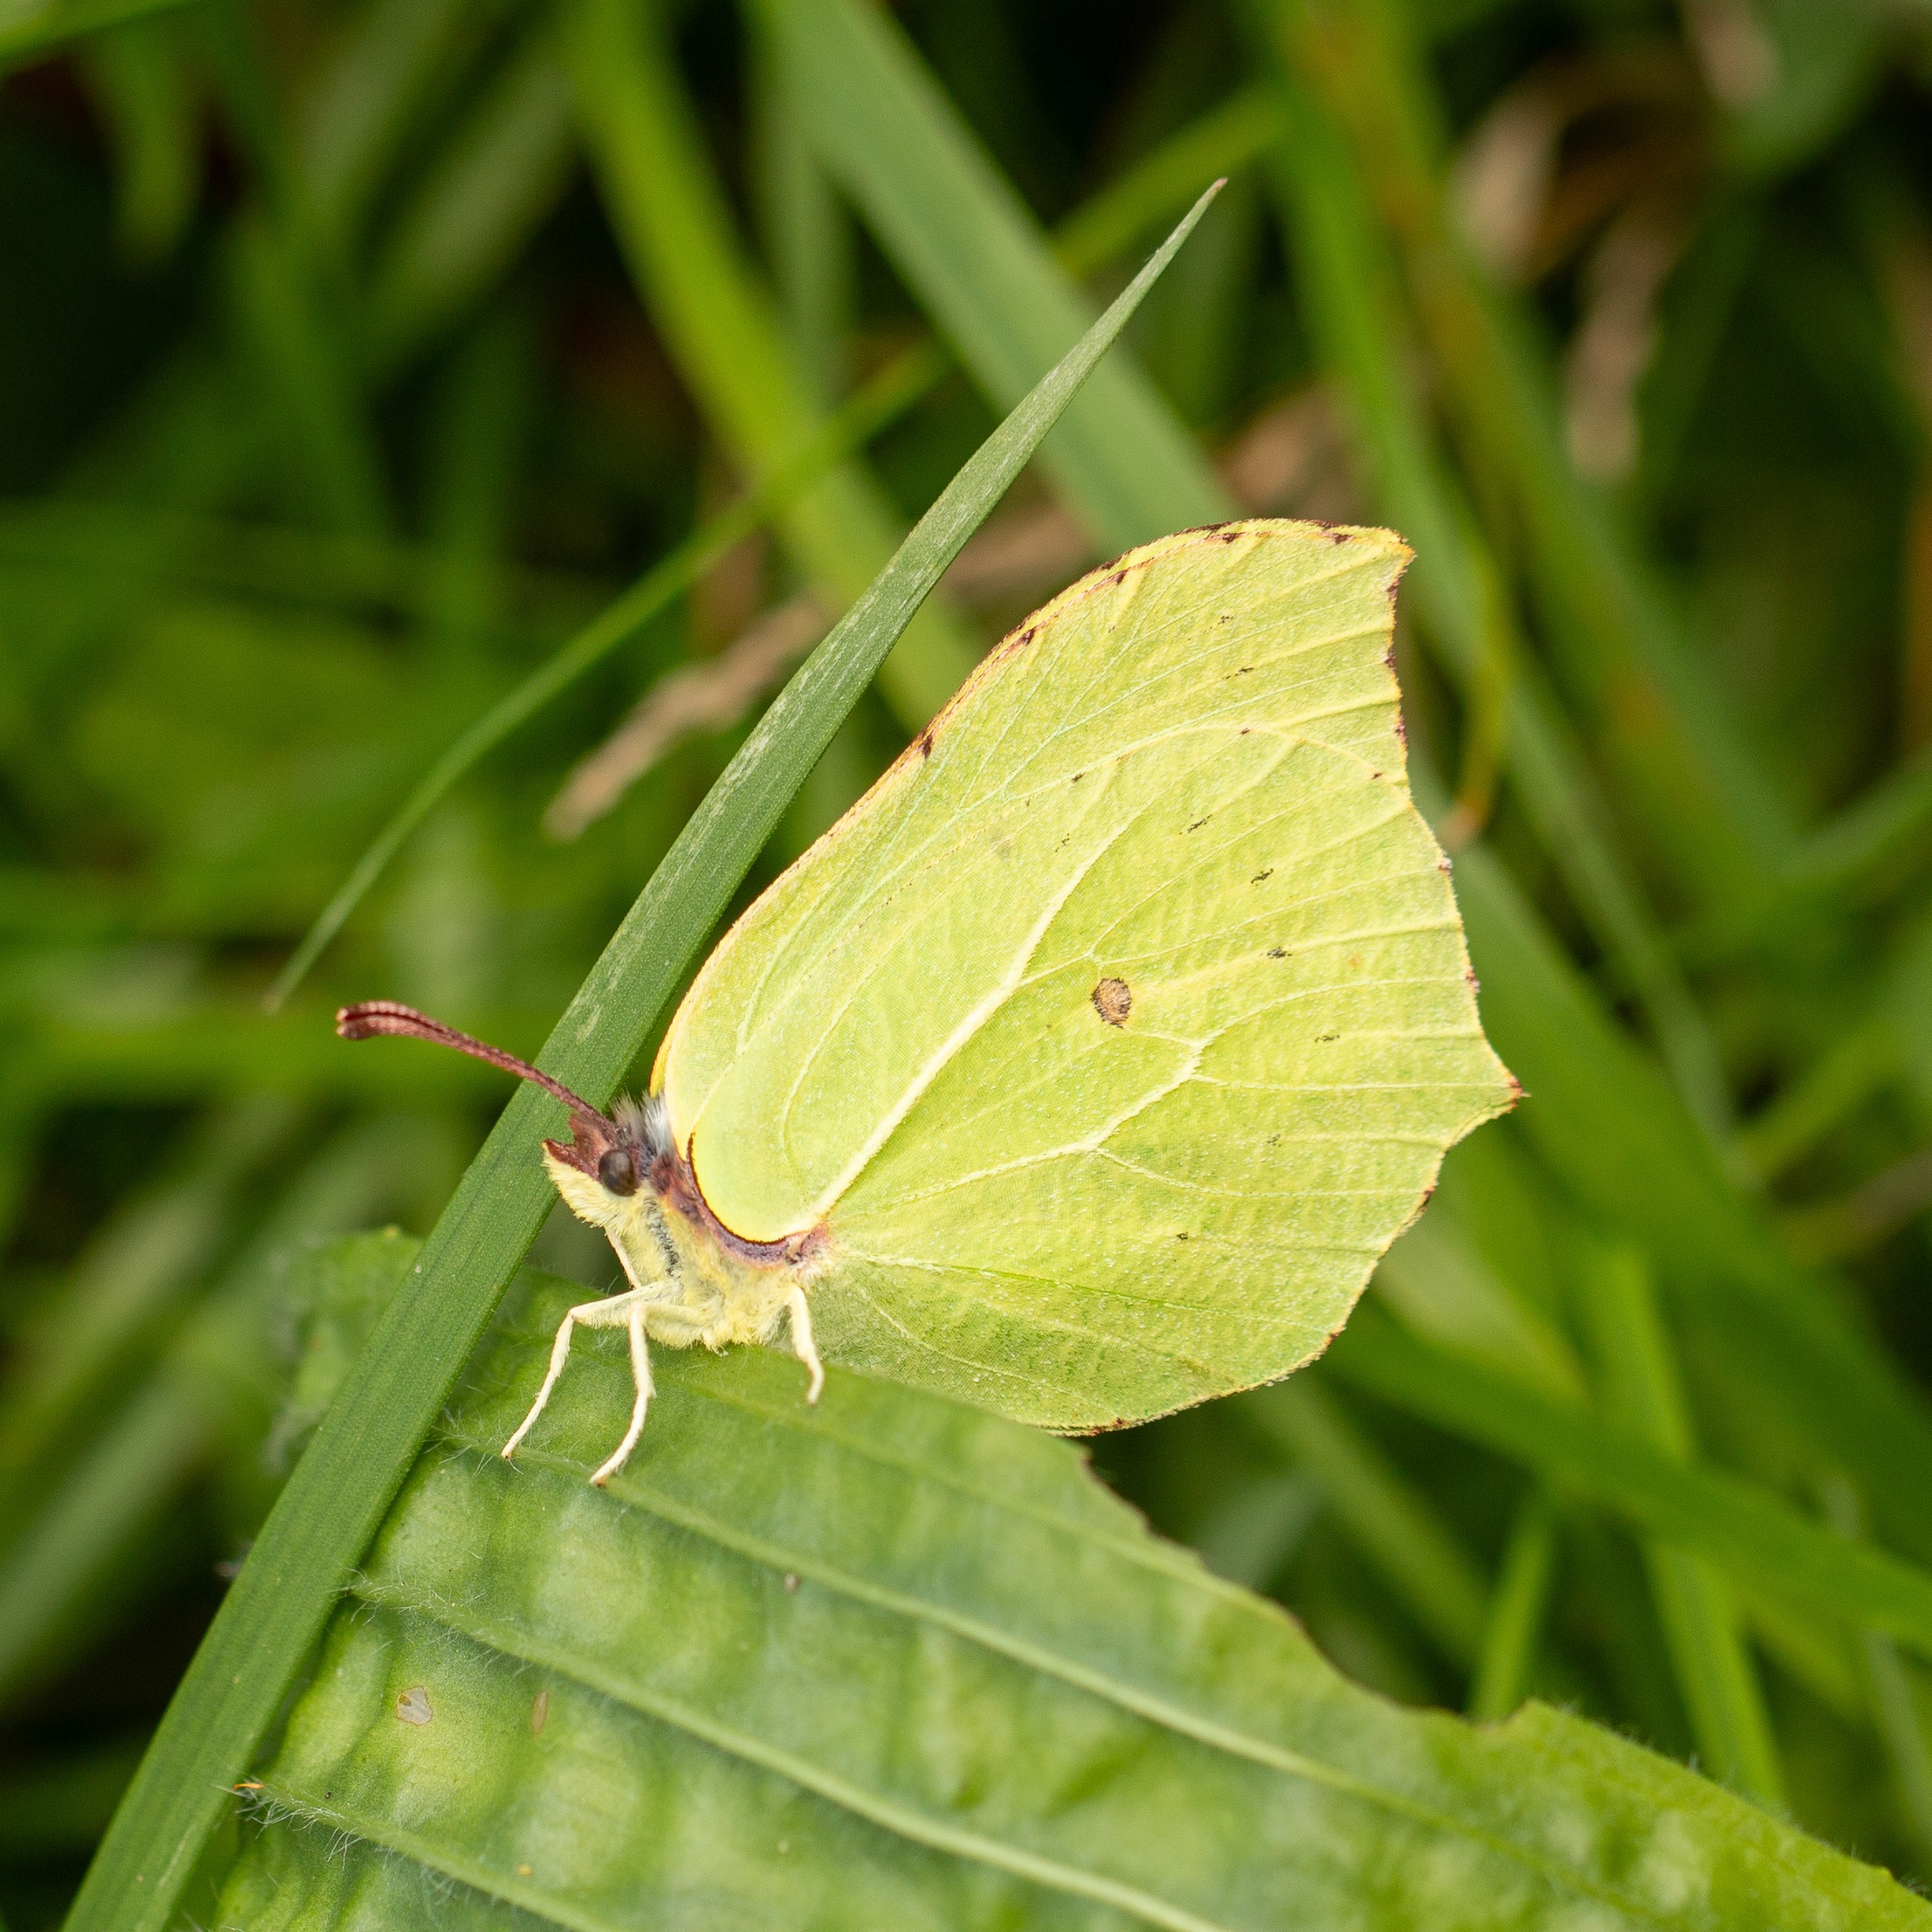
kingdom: Animalia
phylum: Arthropoda
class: Insecta
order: Lepidoptera
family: Pieridae
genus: Gonepteryx
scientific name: Gonepteryx rhamni
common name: Citronsommerfugl
